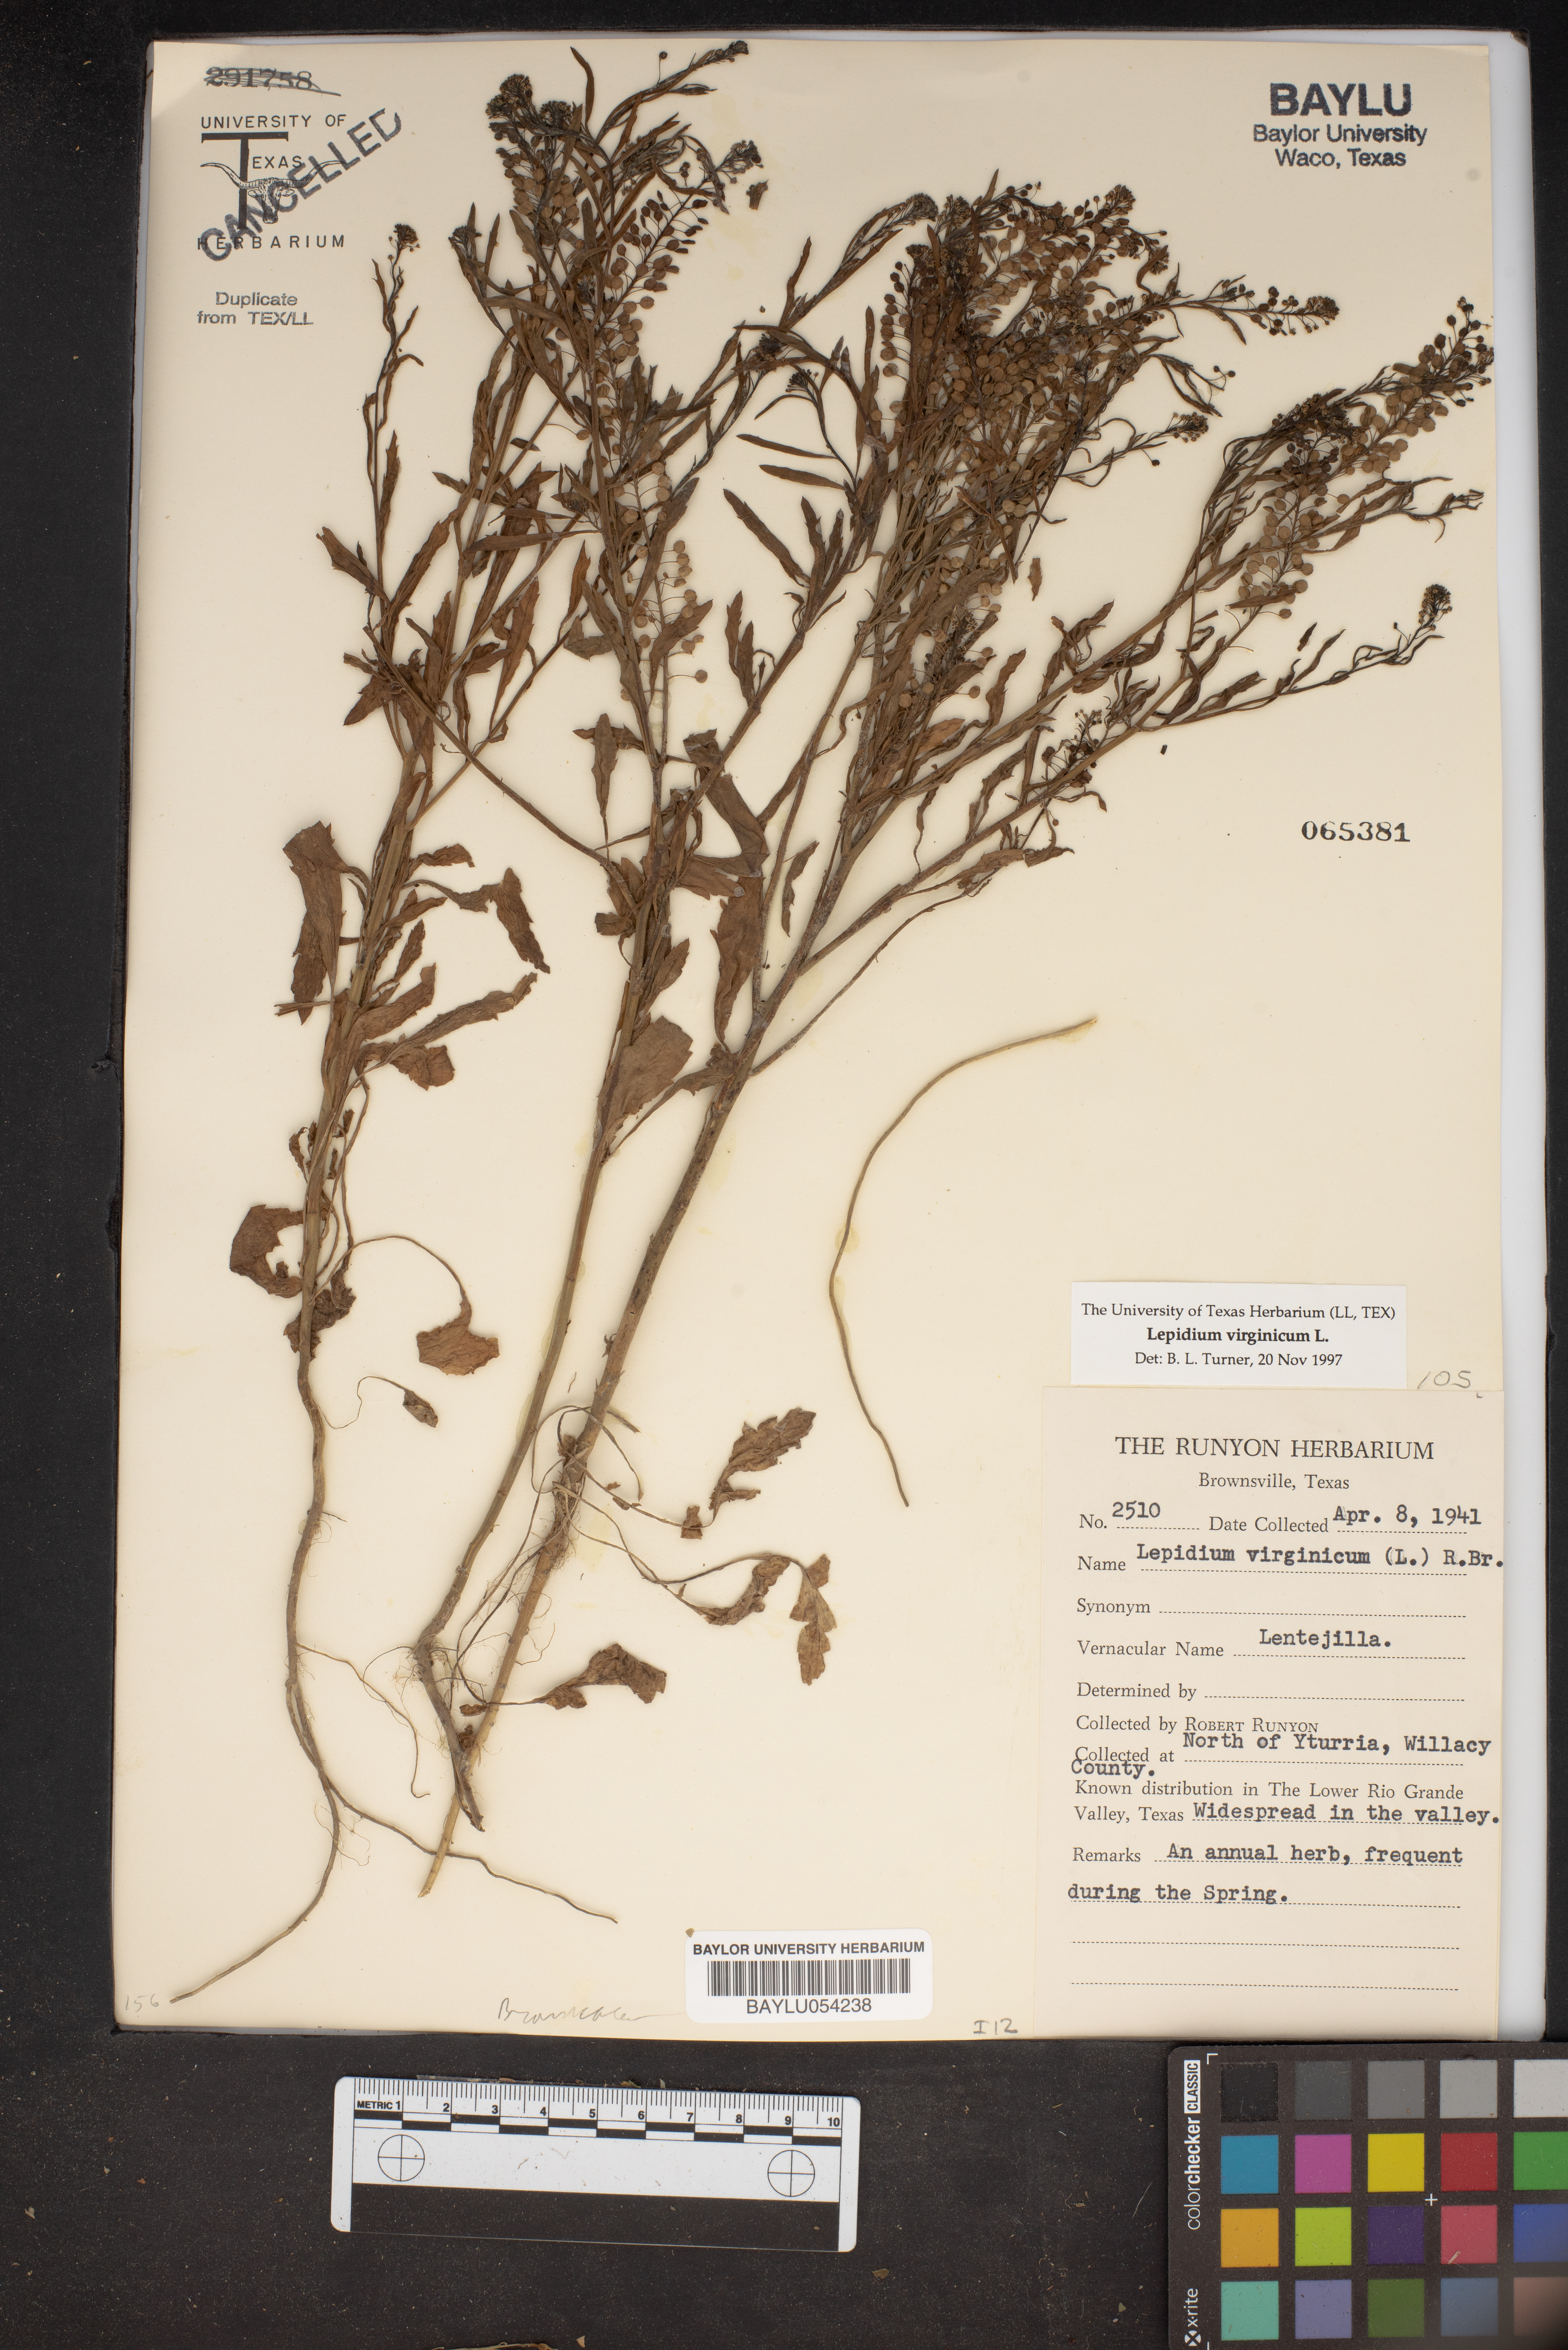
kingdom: Plantae
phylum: Tracheophyta
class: Magnoliopsida
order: Brassicales
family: Brassicaceae
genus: Lepidium
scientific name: Lepidium virginicum
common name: Least pepperwort
